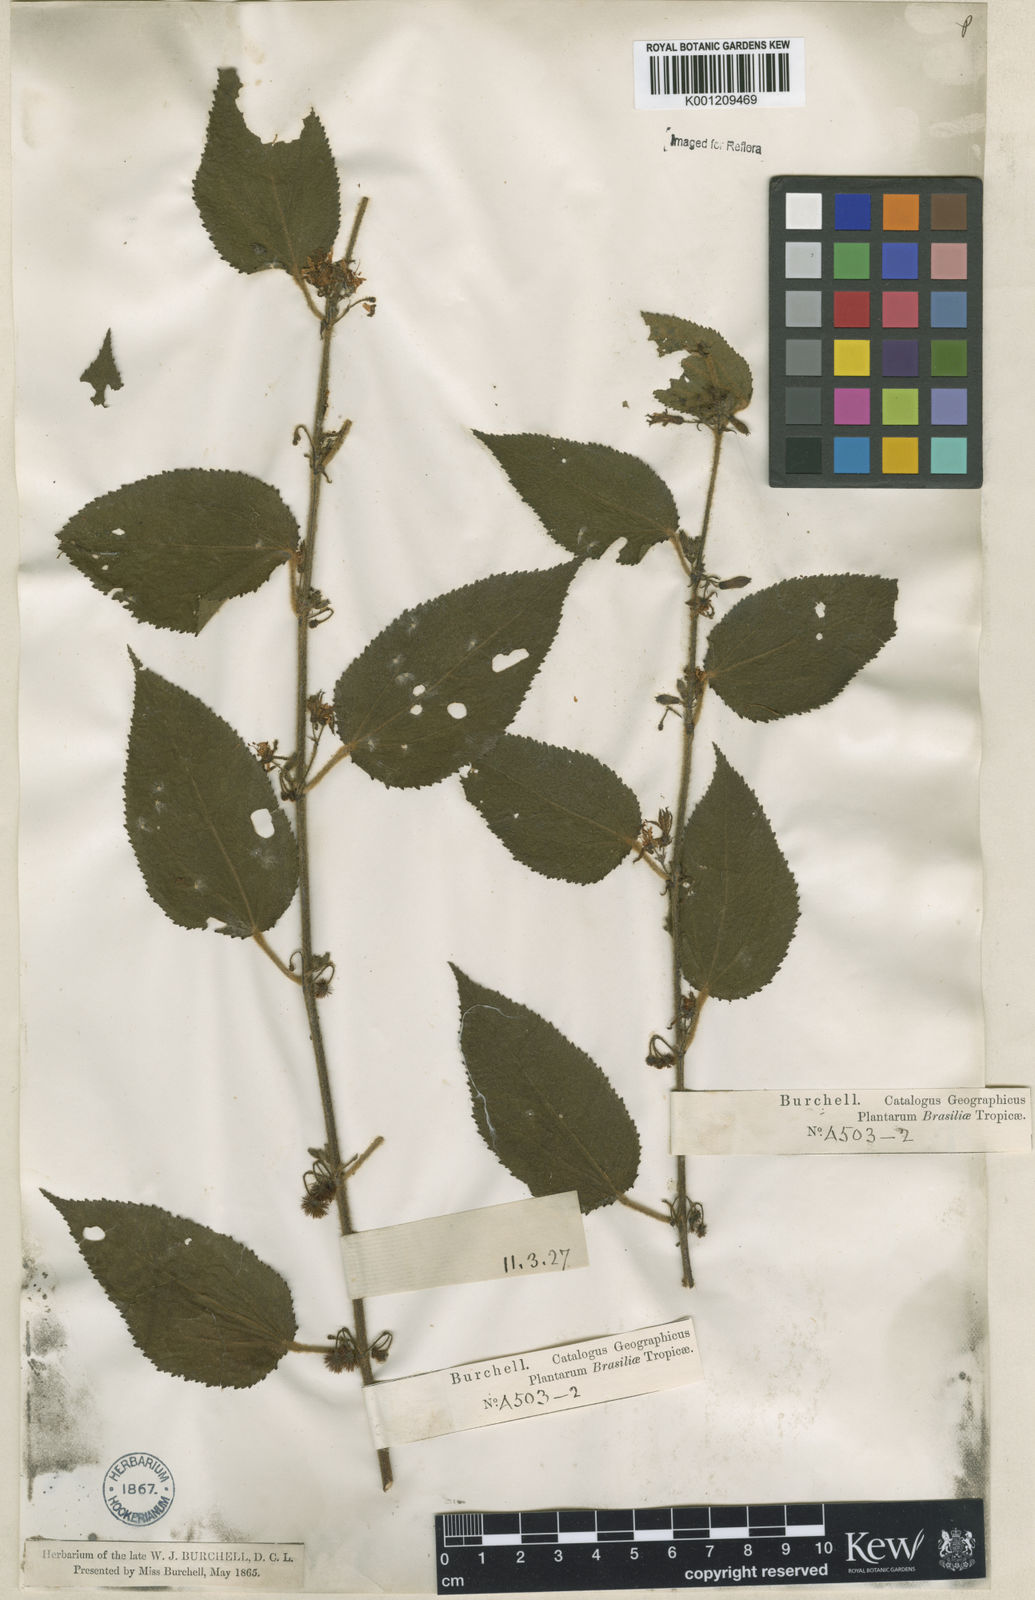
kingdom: Plantae
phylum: Tracheophyta
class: Magnoliopsida
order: Malvales
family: Malvaceae
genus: Triumfetta
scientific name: Triumfetta abutiloides
